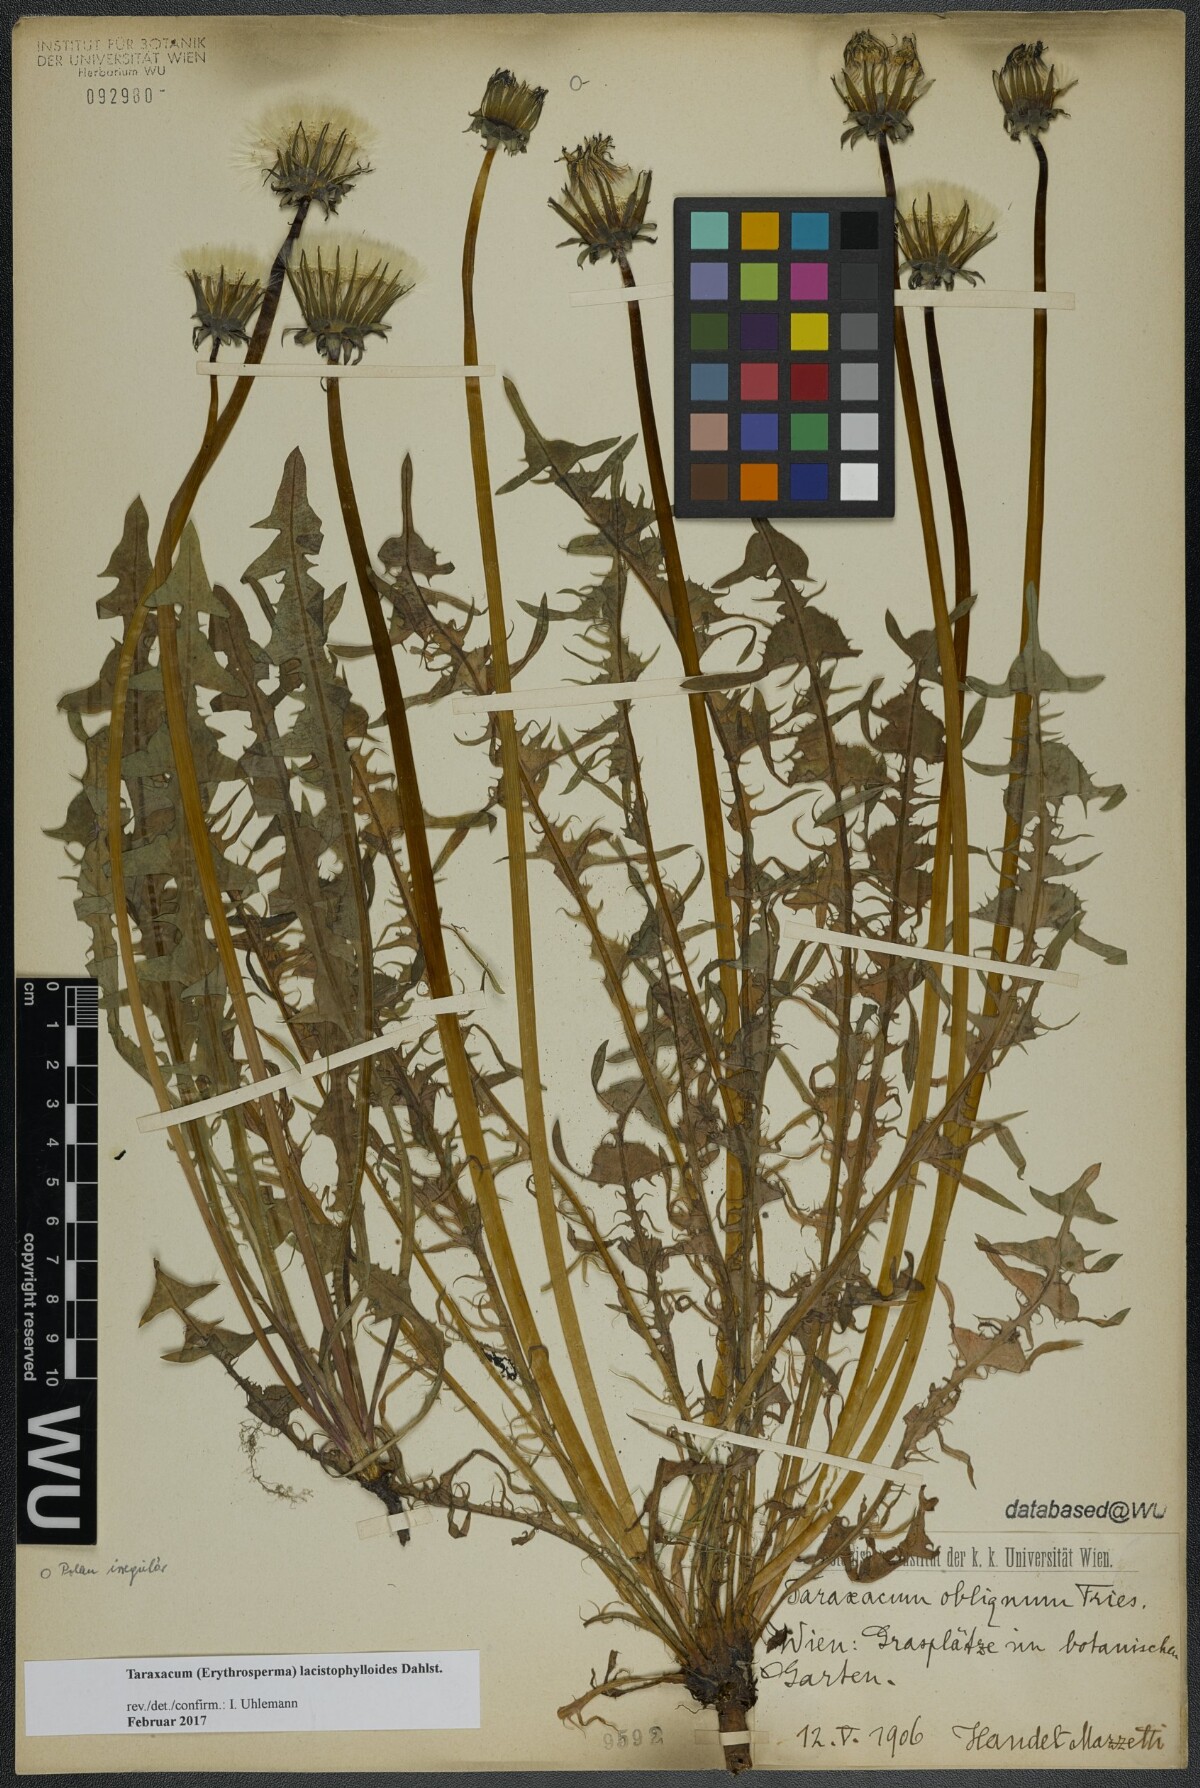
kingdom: Plantae
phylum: Tracheophyta
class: Magnoliopsida
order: Asterales
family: Asteraceae
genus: Taraxacum
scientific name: Taraxacum lacistophylloides
